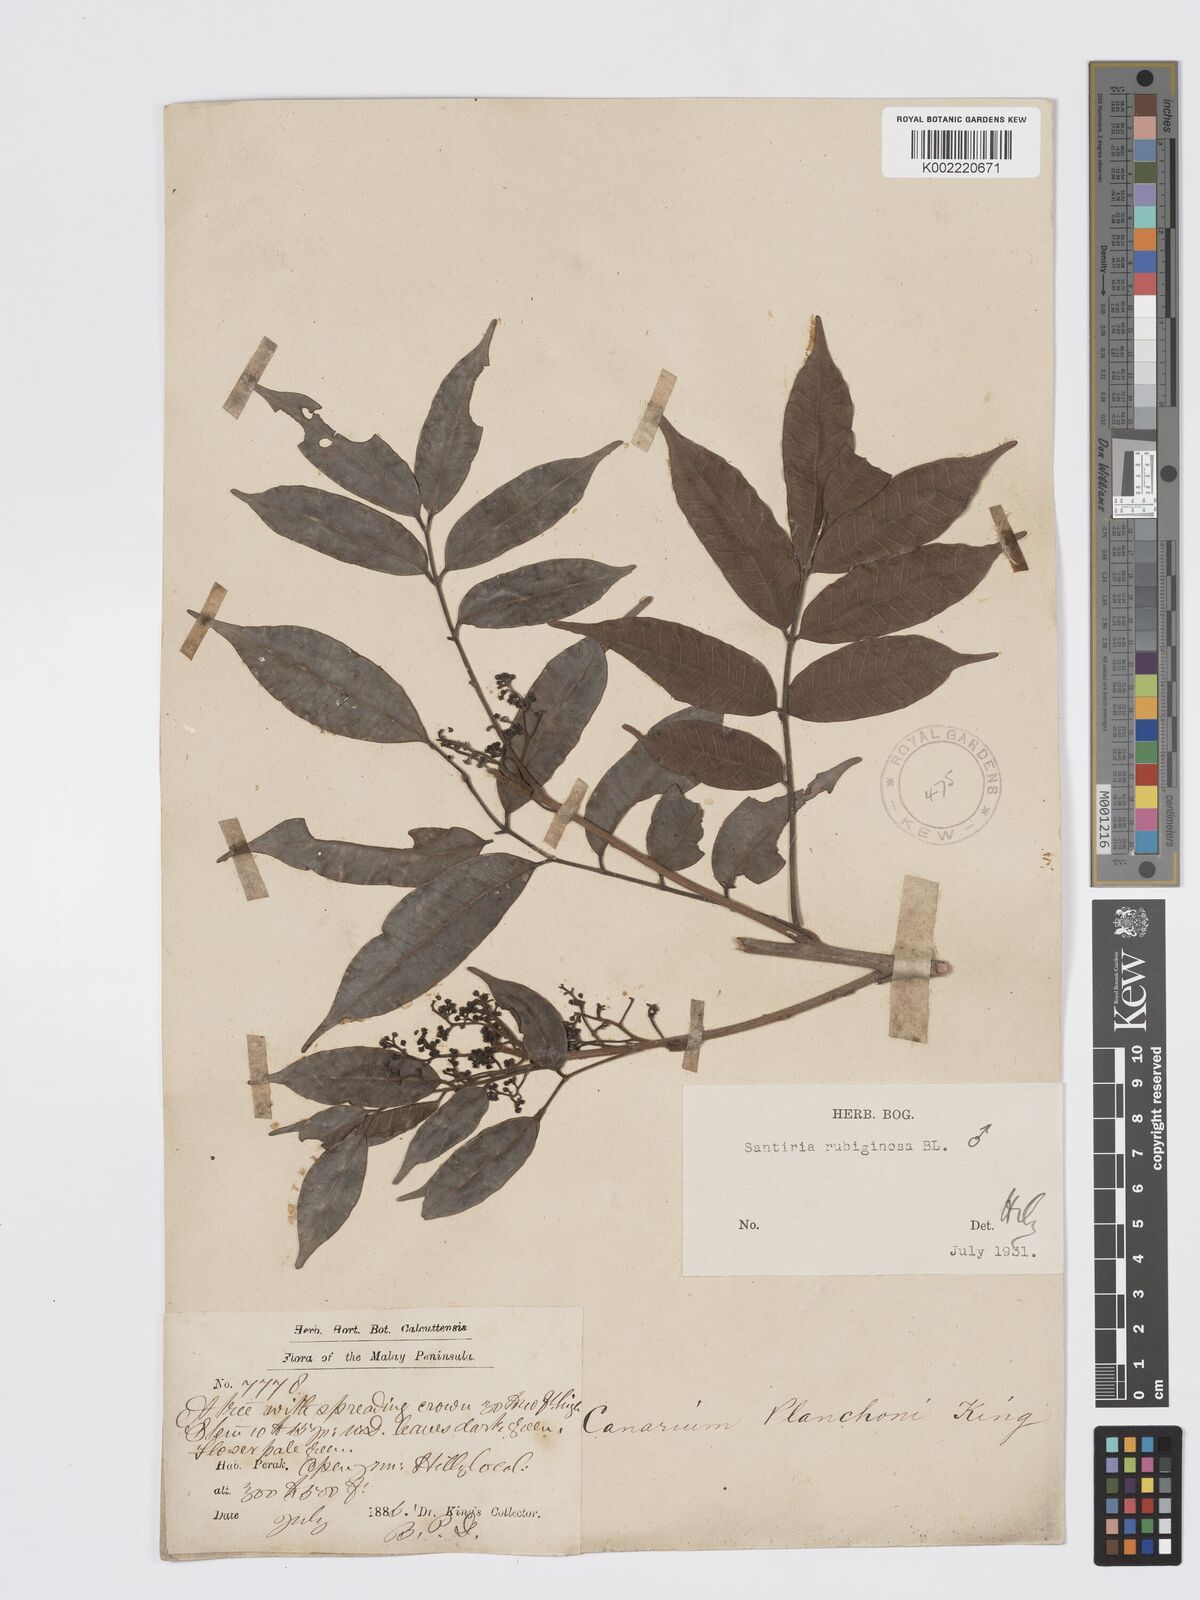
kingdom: Plantae
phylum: Tracheophyta
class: Magnoliopsida
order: Sapindales
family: Burseraceae
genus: Santiria
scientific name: Santiria rubiginosa
